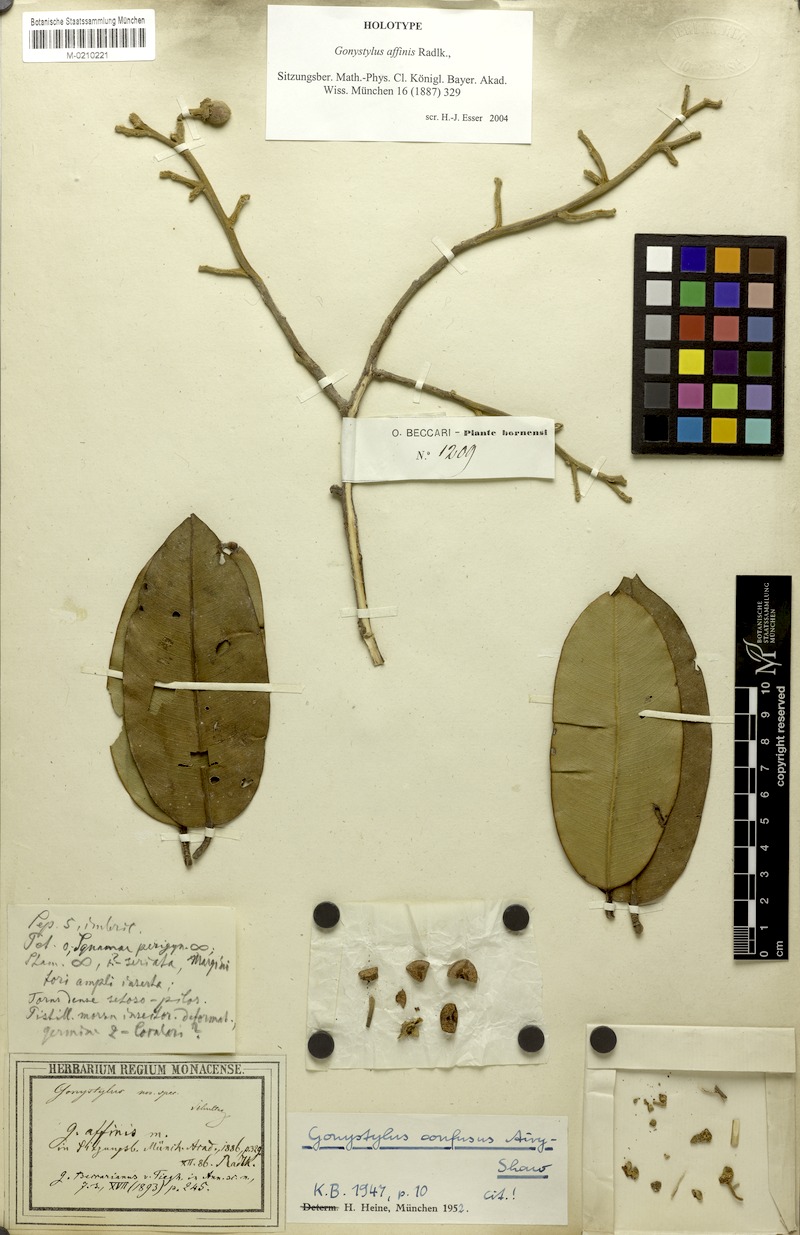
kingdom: Plantae
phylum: Tracheophyta
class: Magnoliopsida
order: Malvales
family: Thymelaeaceae
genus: Gonystylus
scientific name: Gonystylus affinis
